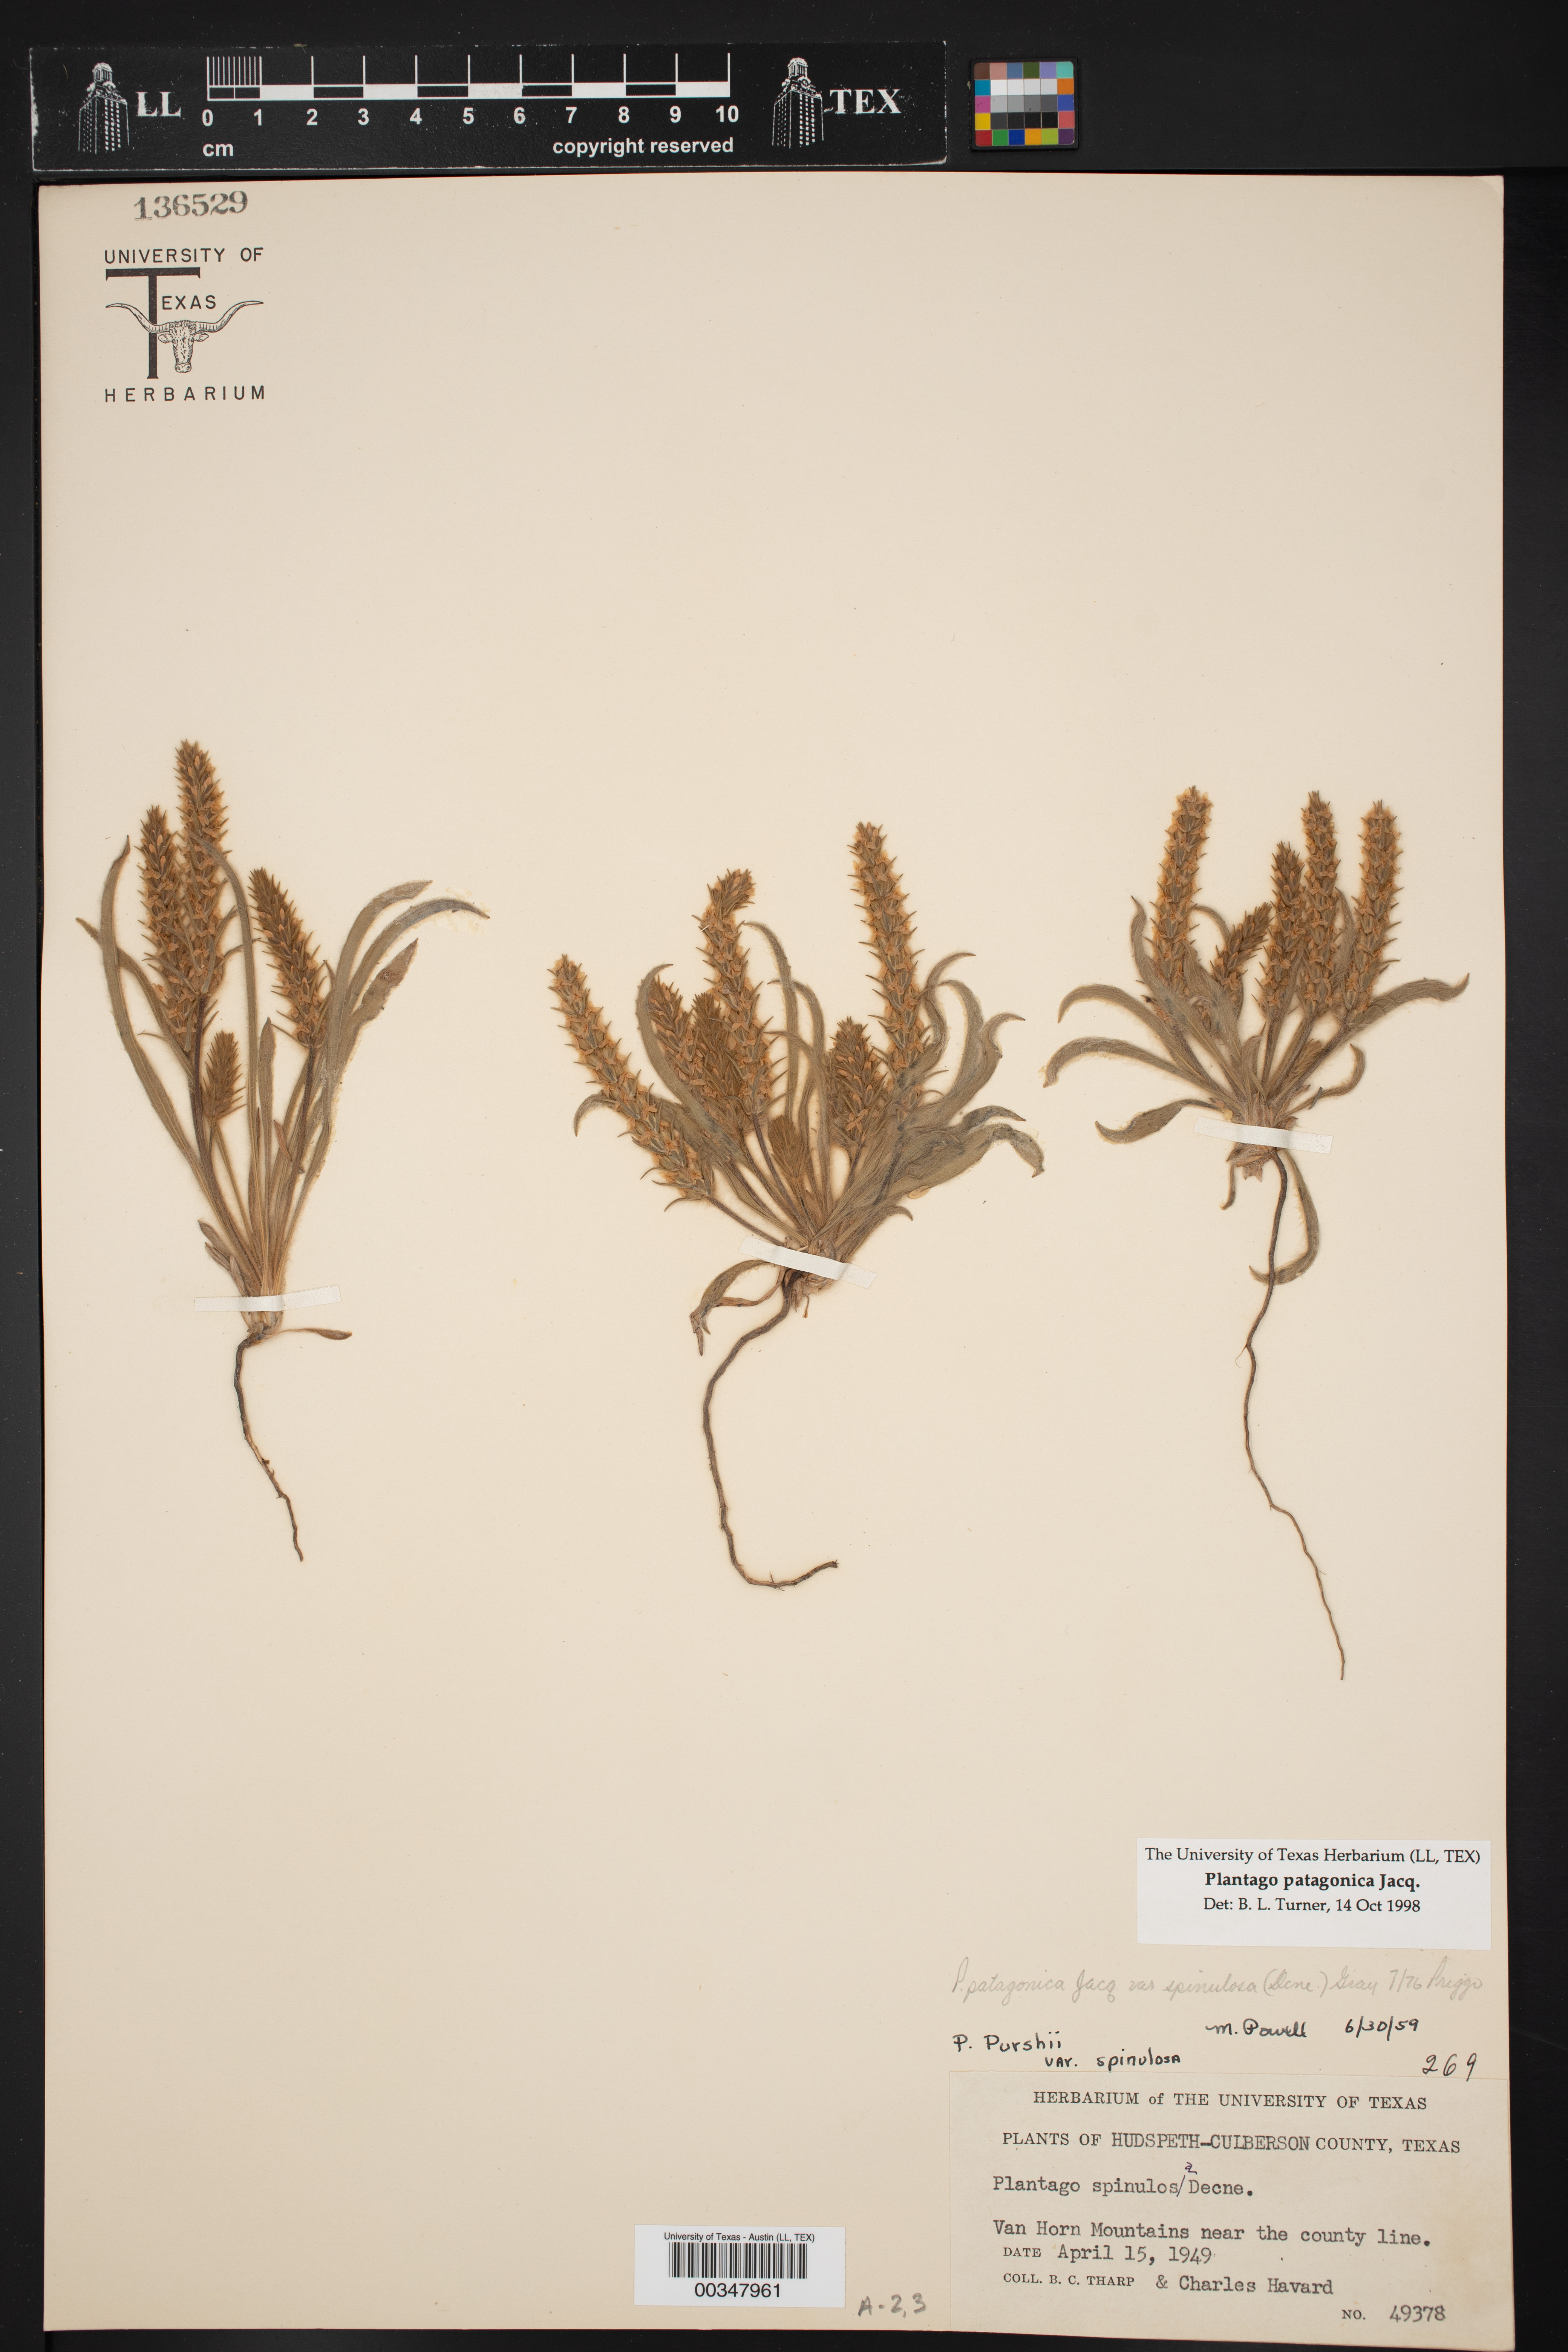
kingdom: Plantae
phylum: Tracheophyta
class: Magnoliopsida
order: Lamiales
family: Plantaginaceae
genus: Plantago
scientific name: Plantago patagonica
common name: Patagonia indian-wheat
